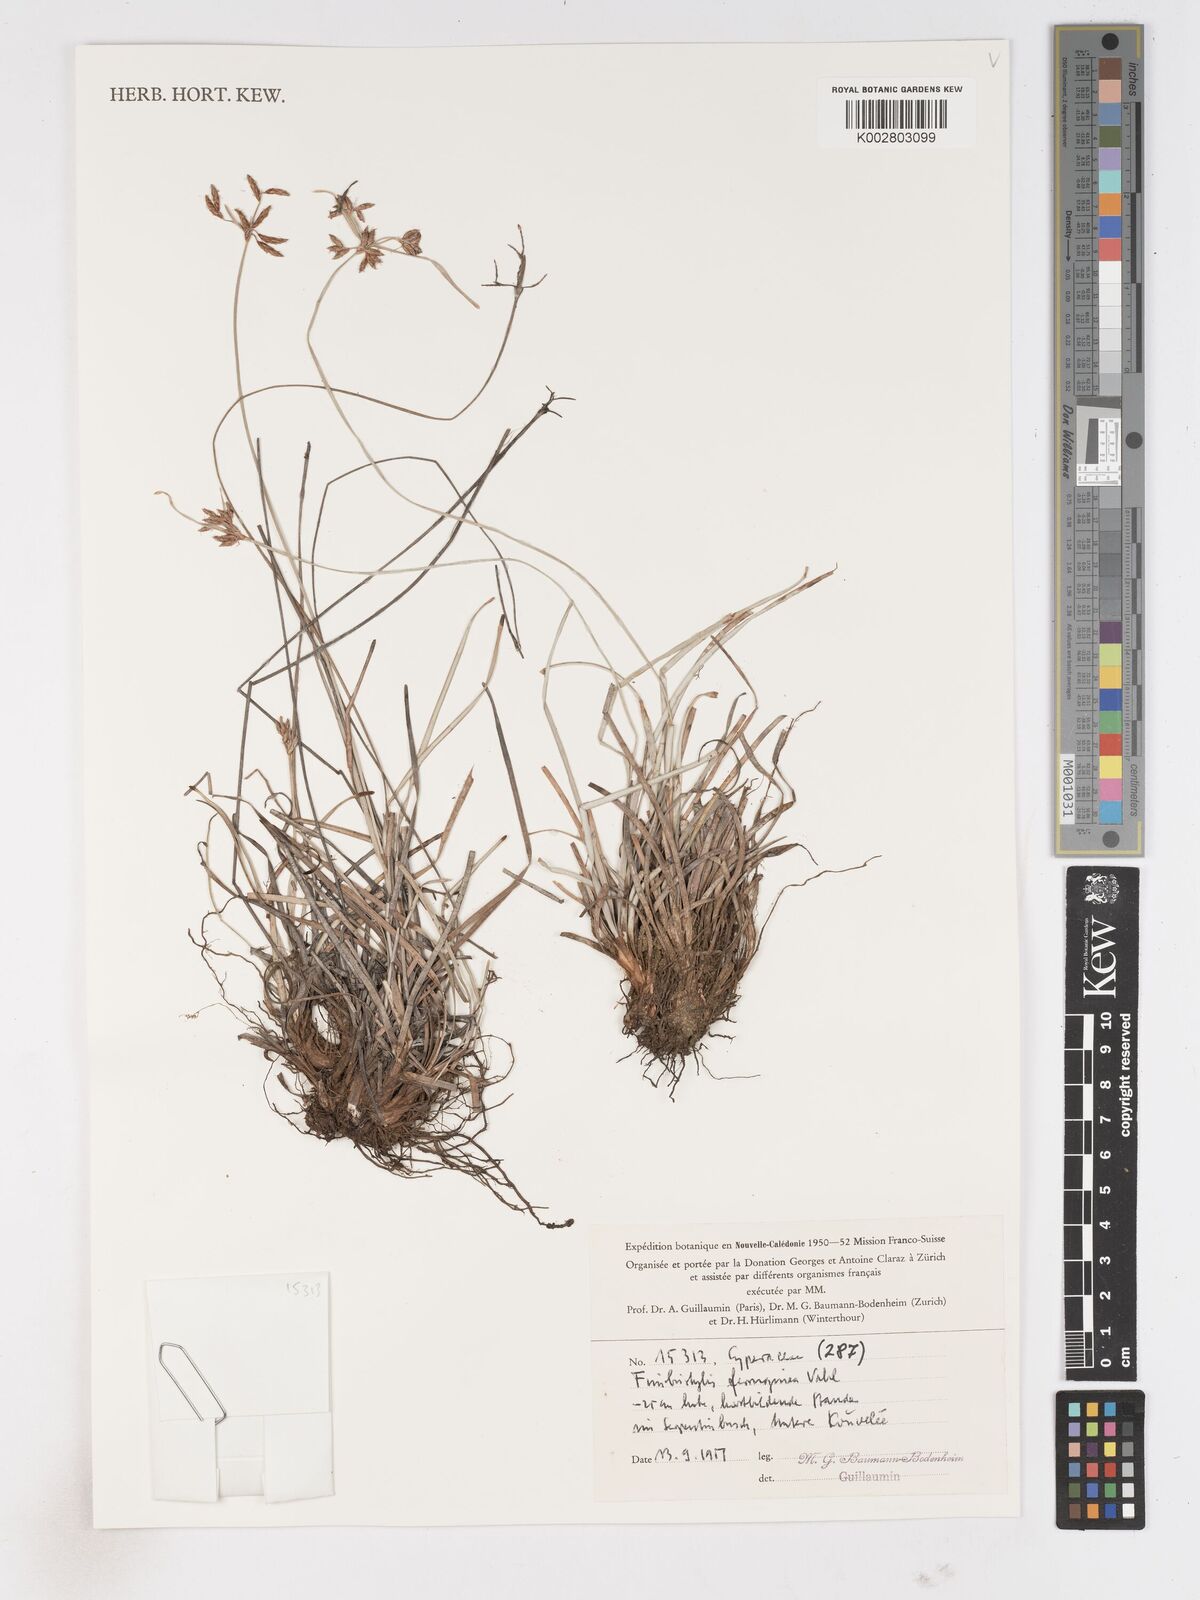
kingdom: Plantae
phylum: Tracheophyta
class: Liliopsida
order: Poales
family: Cyperaceae
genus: Fimbristylis
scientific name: Fimbristylis ferruginea
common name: West indian fimbry
